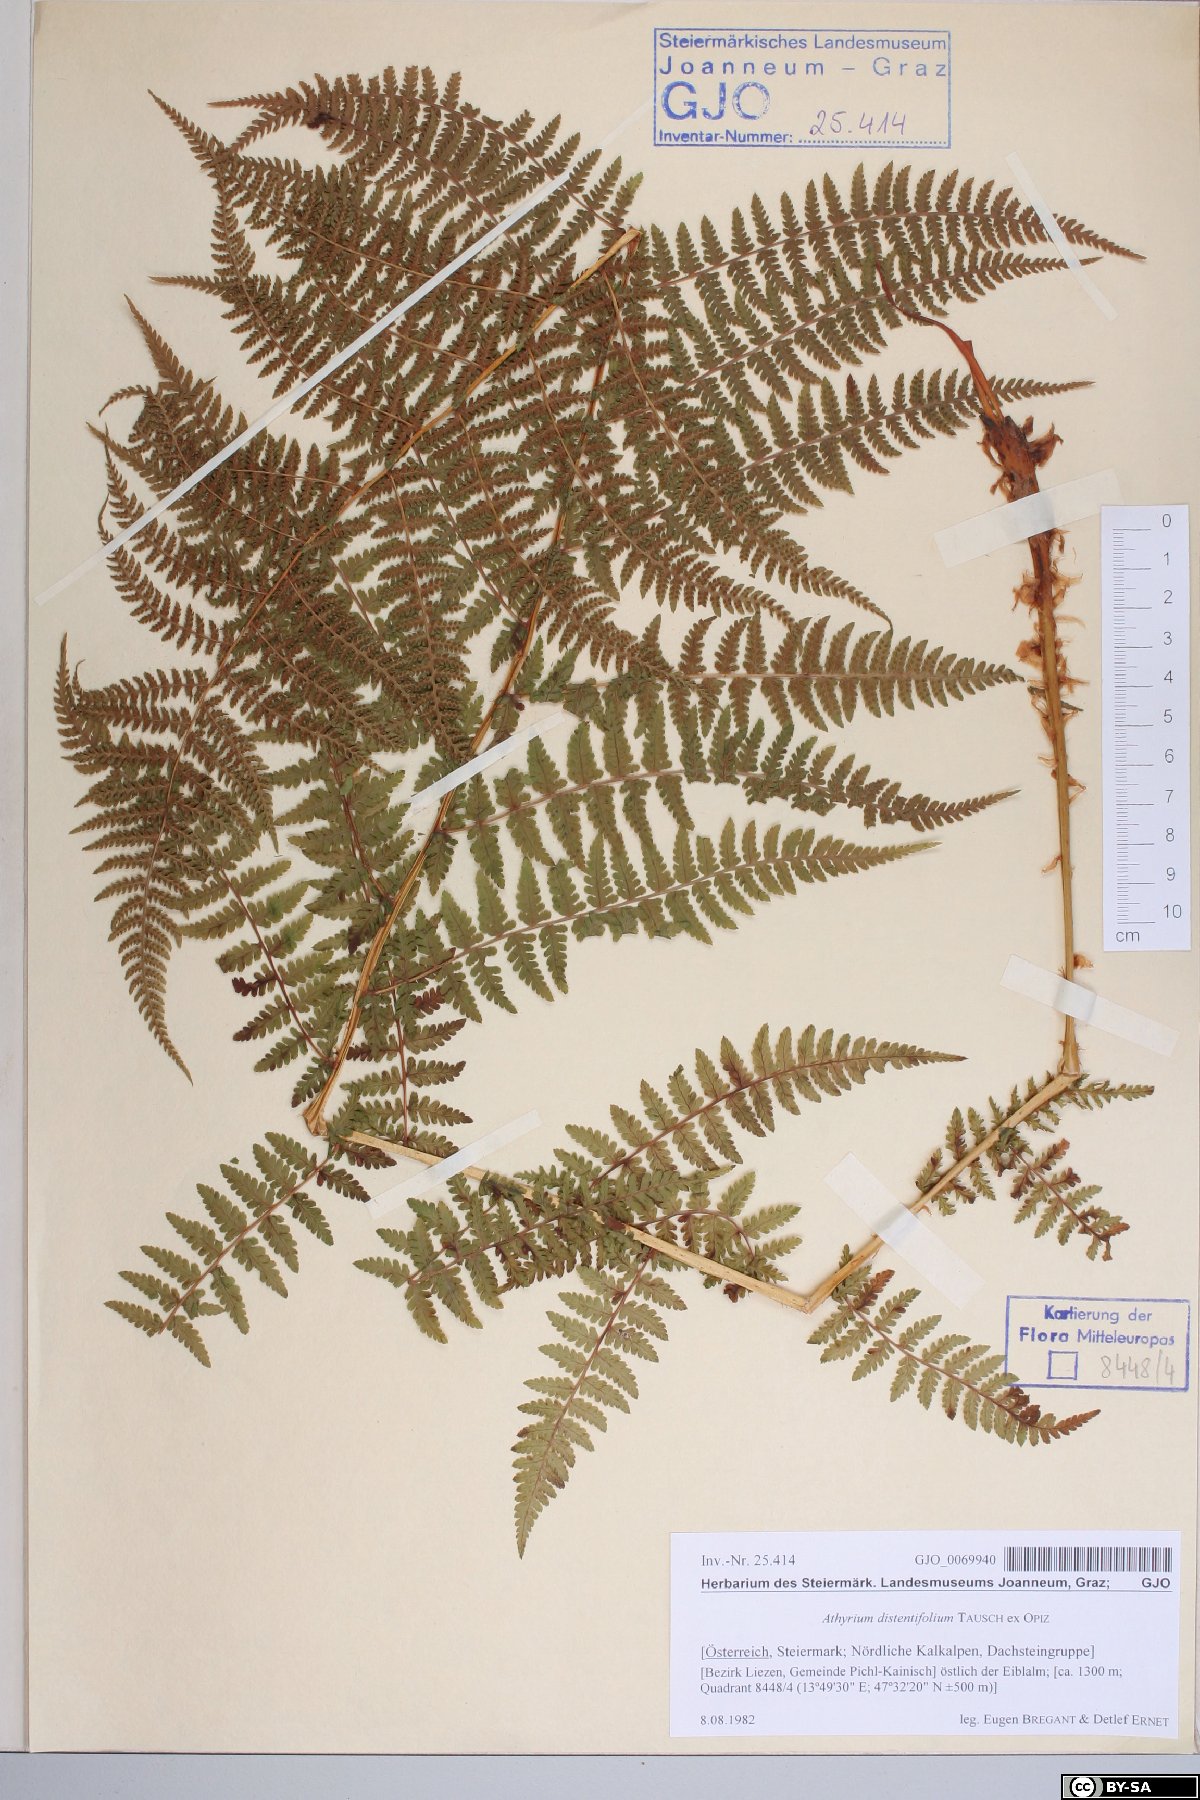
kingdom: Plantae
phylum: Tracheophyta
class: Polypodiopsida
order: Polypodiales
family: Athyriaceae
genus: Pseudathyrium
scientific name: Pseudathyrium alpestre
